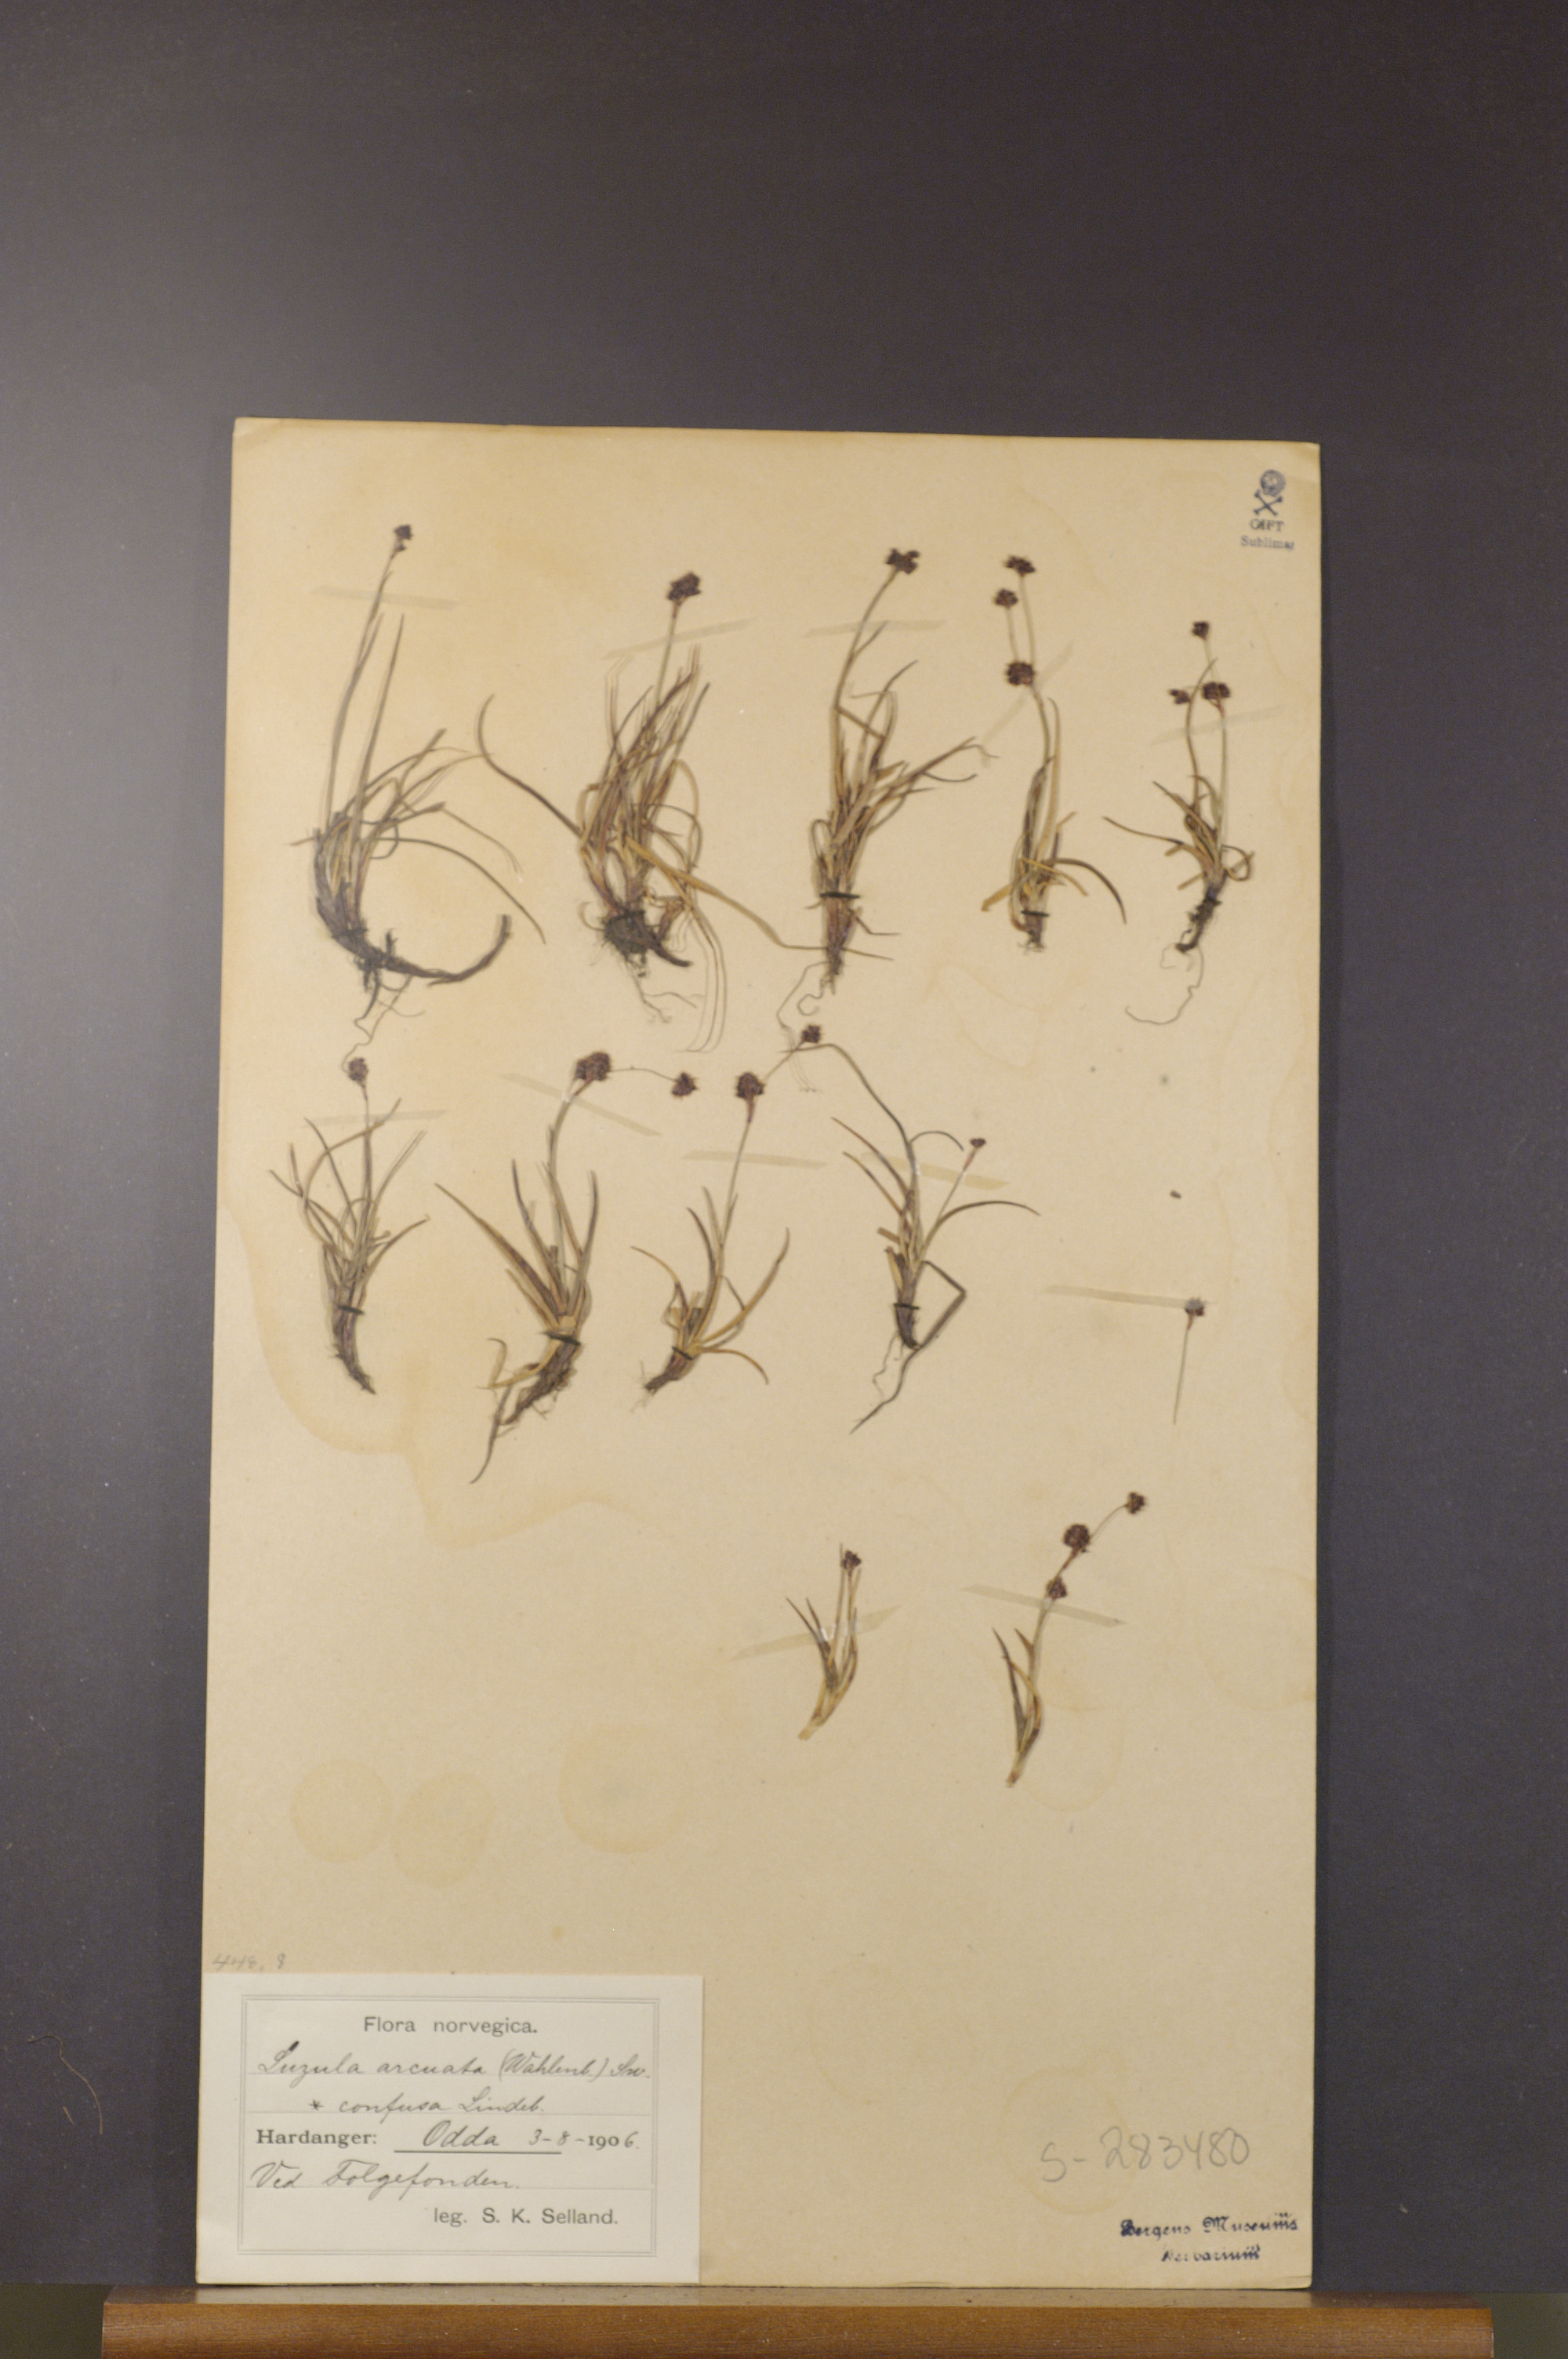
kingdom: Plantae
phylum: Tracheophyta
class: Liliopsida
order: Poales
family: Juncaceae
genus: Luzula
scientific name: Luzula confusa
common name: Northern wood rush
